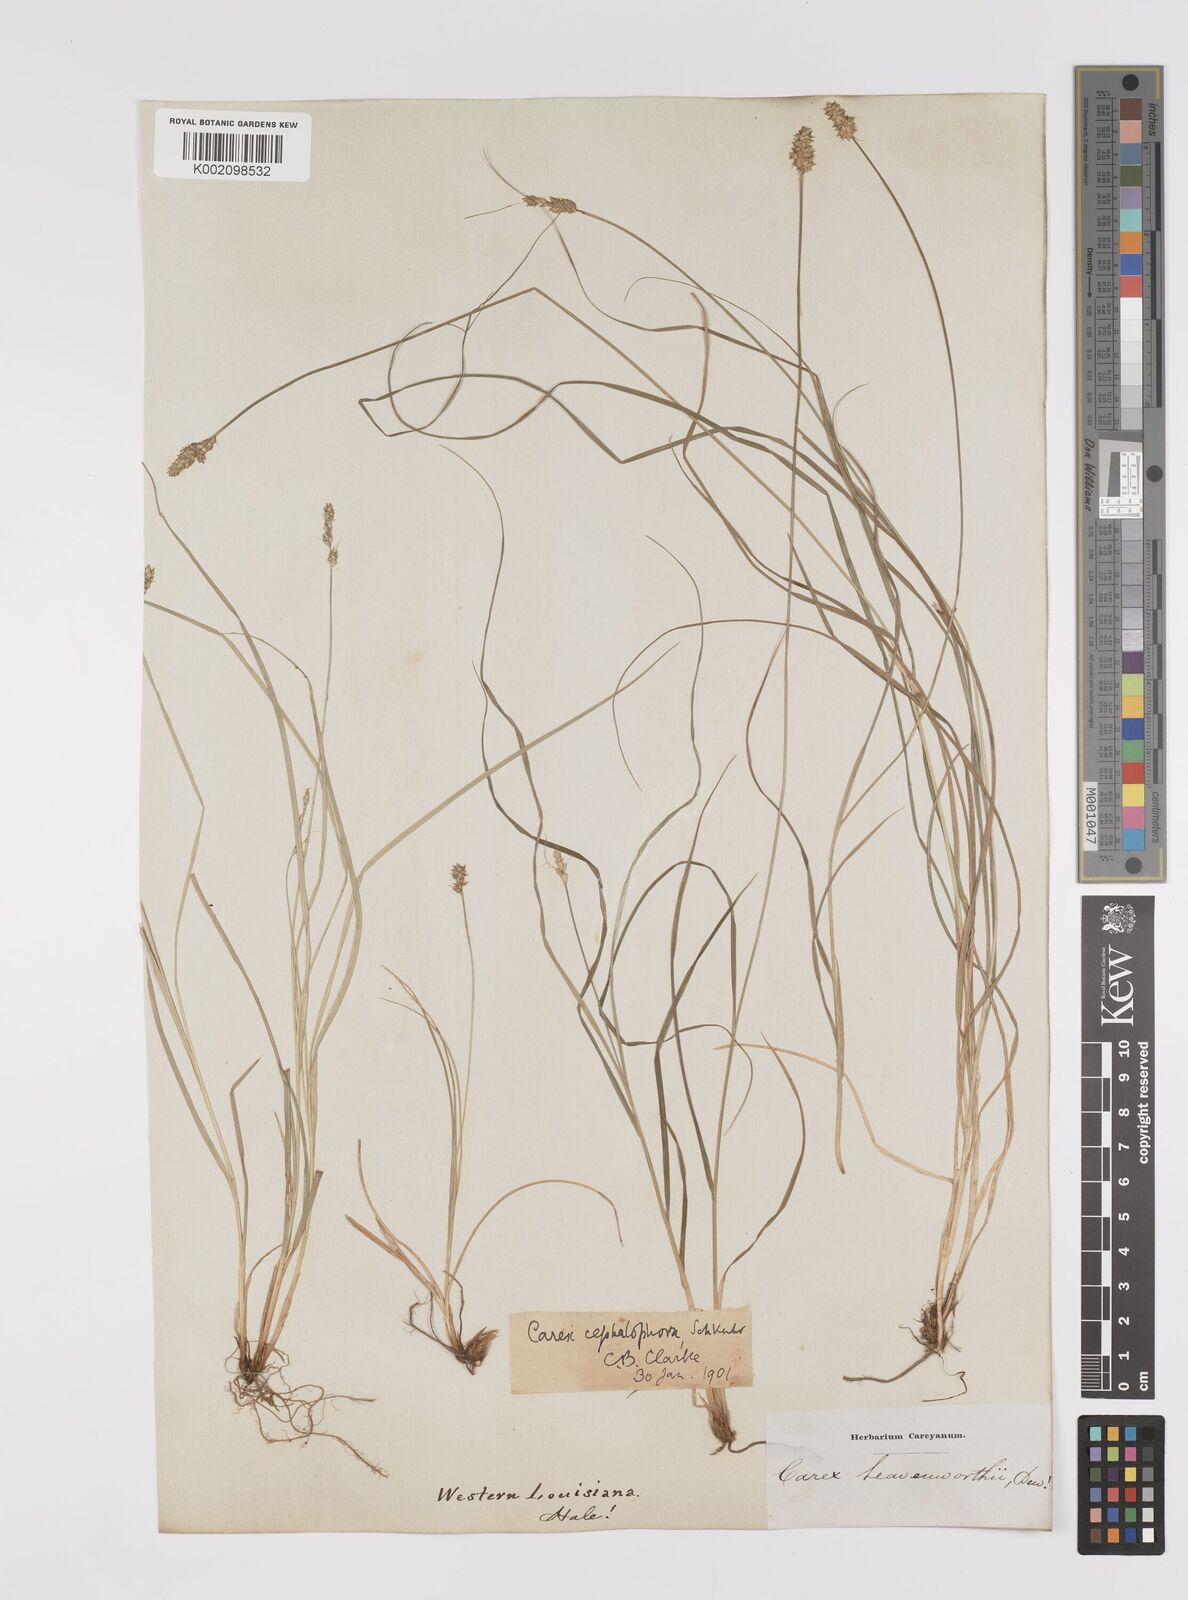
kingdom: Plantae
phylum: Tracheophyta
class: Liliopsida
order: Poales
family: Cyperaceae
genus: Carex
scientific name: Carex cephalophora
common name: Oval-headed sedge
